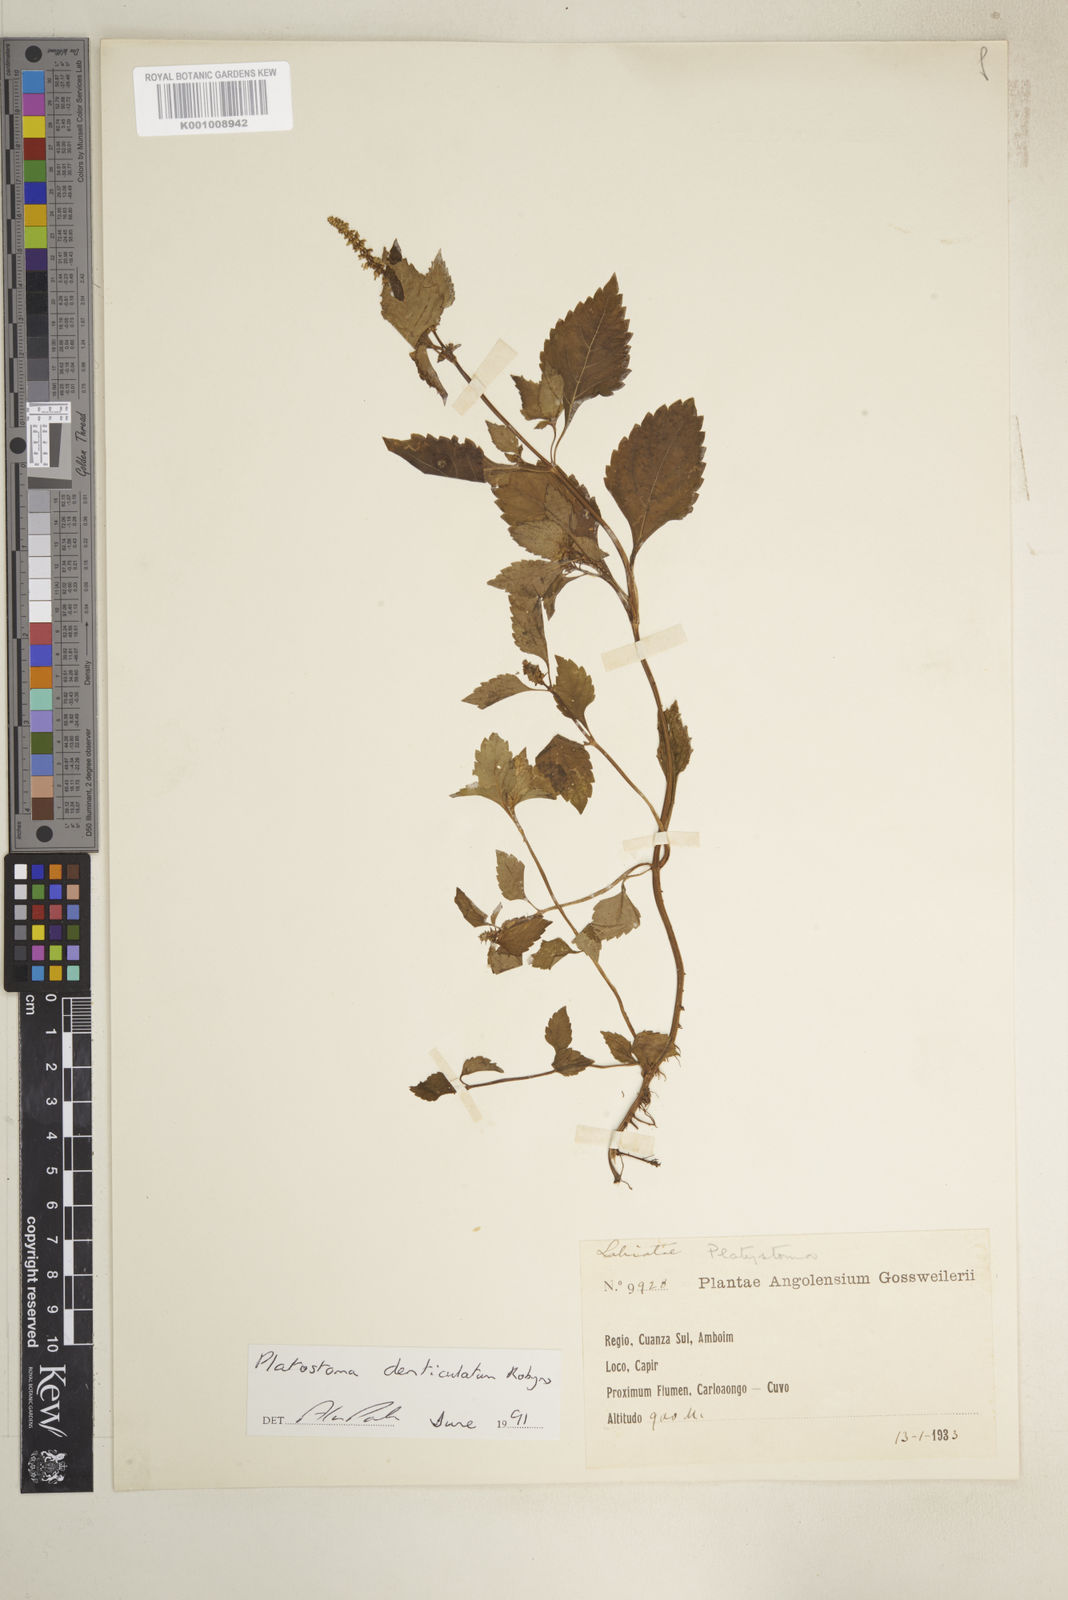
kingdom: Plantae
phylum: Tracheophyta
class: Magnoliopsida
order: Lamiales
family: Lamiaceae
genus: Platostoma
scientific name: Platostoma denticulatum
